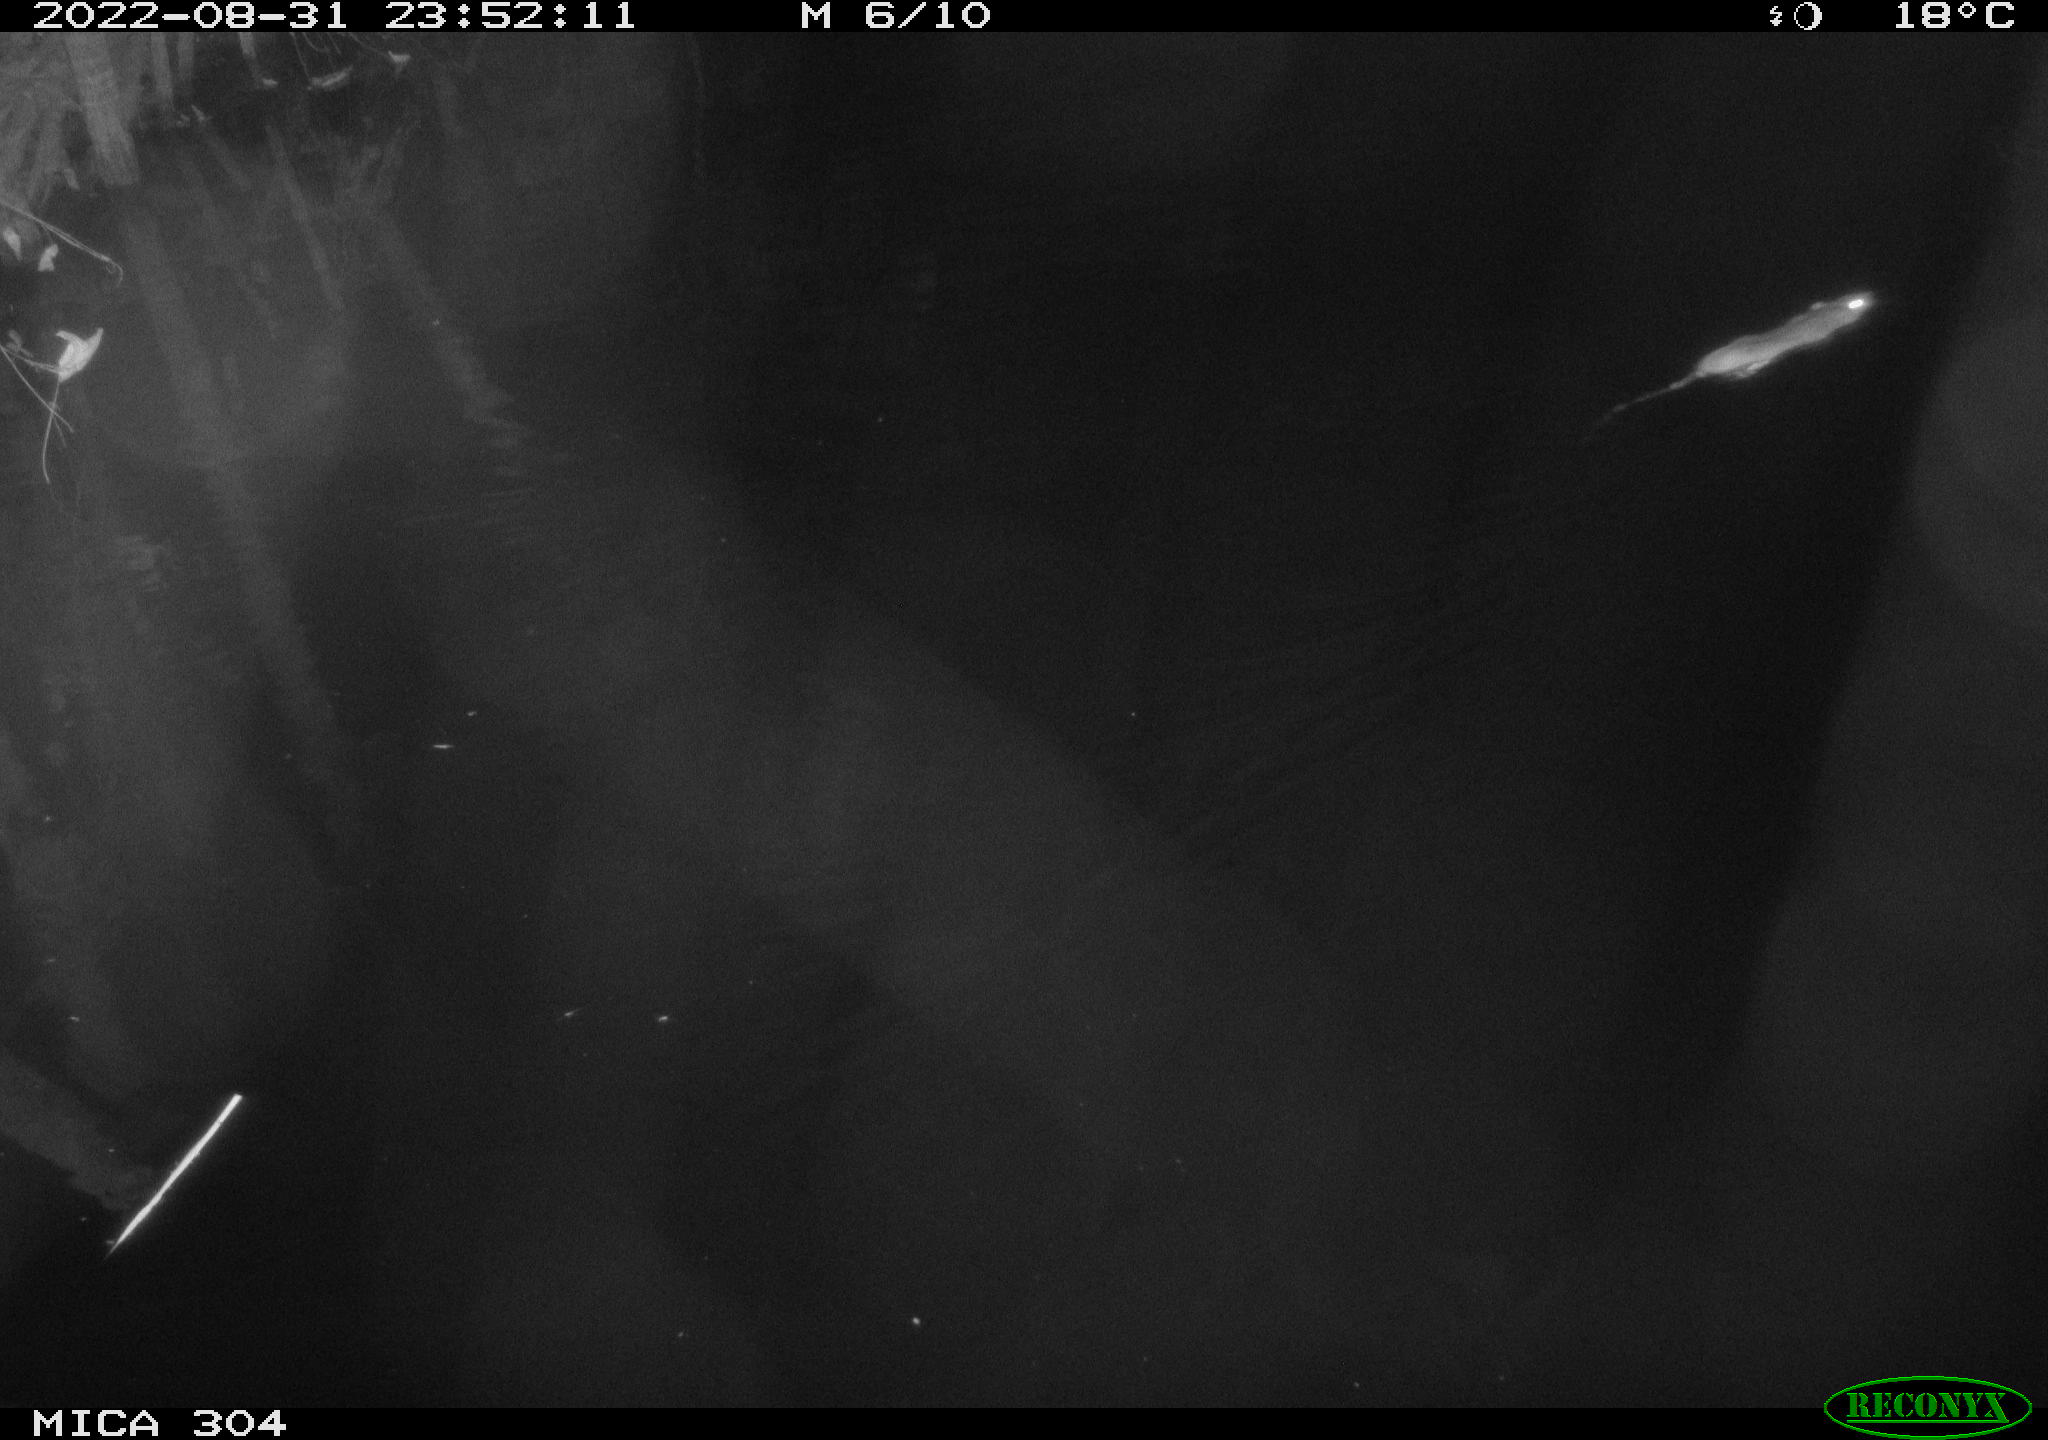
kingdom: Animalia
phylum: Chordata
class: Mammalia
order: Rodentia
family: Muridae
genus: Rattus
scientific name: Rattus norvegicus
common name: Brown rat
